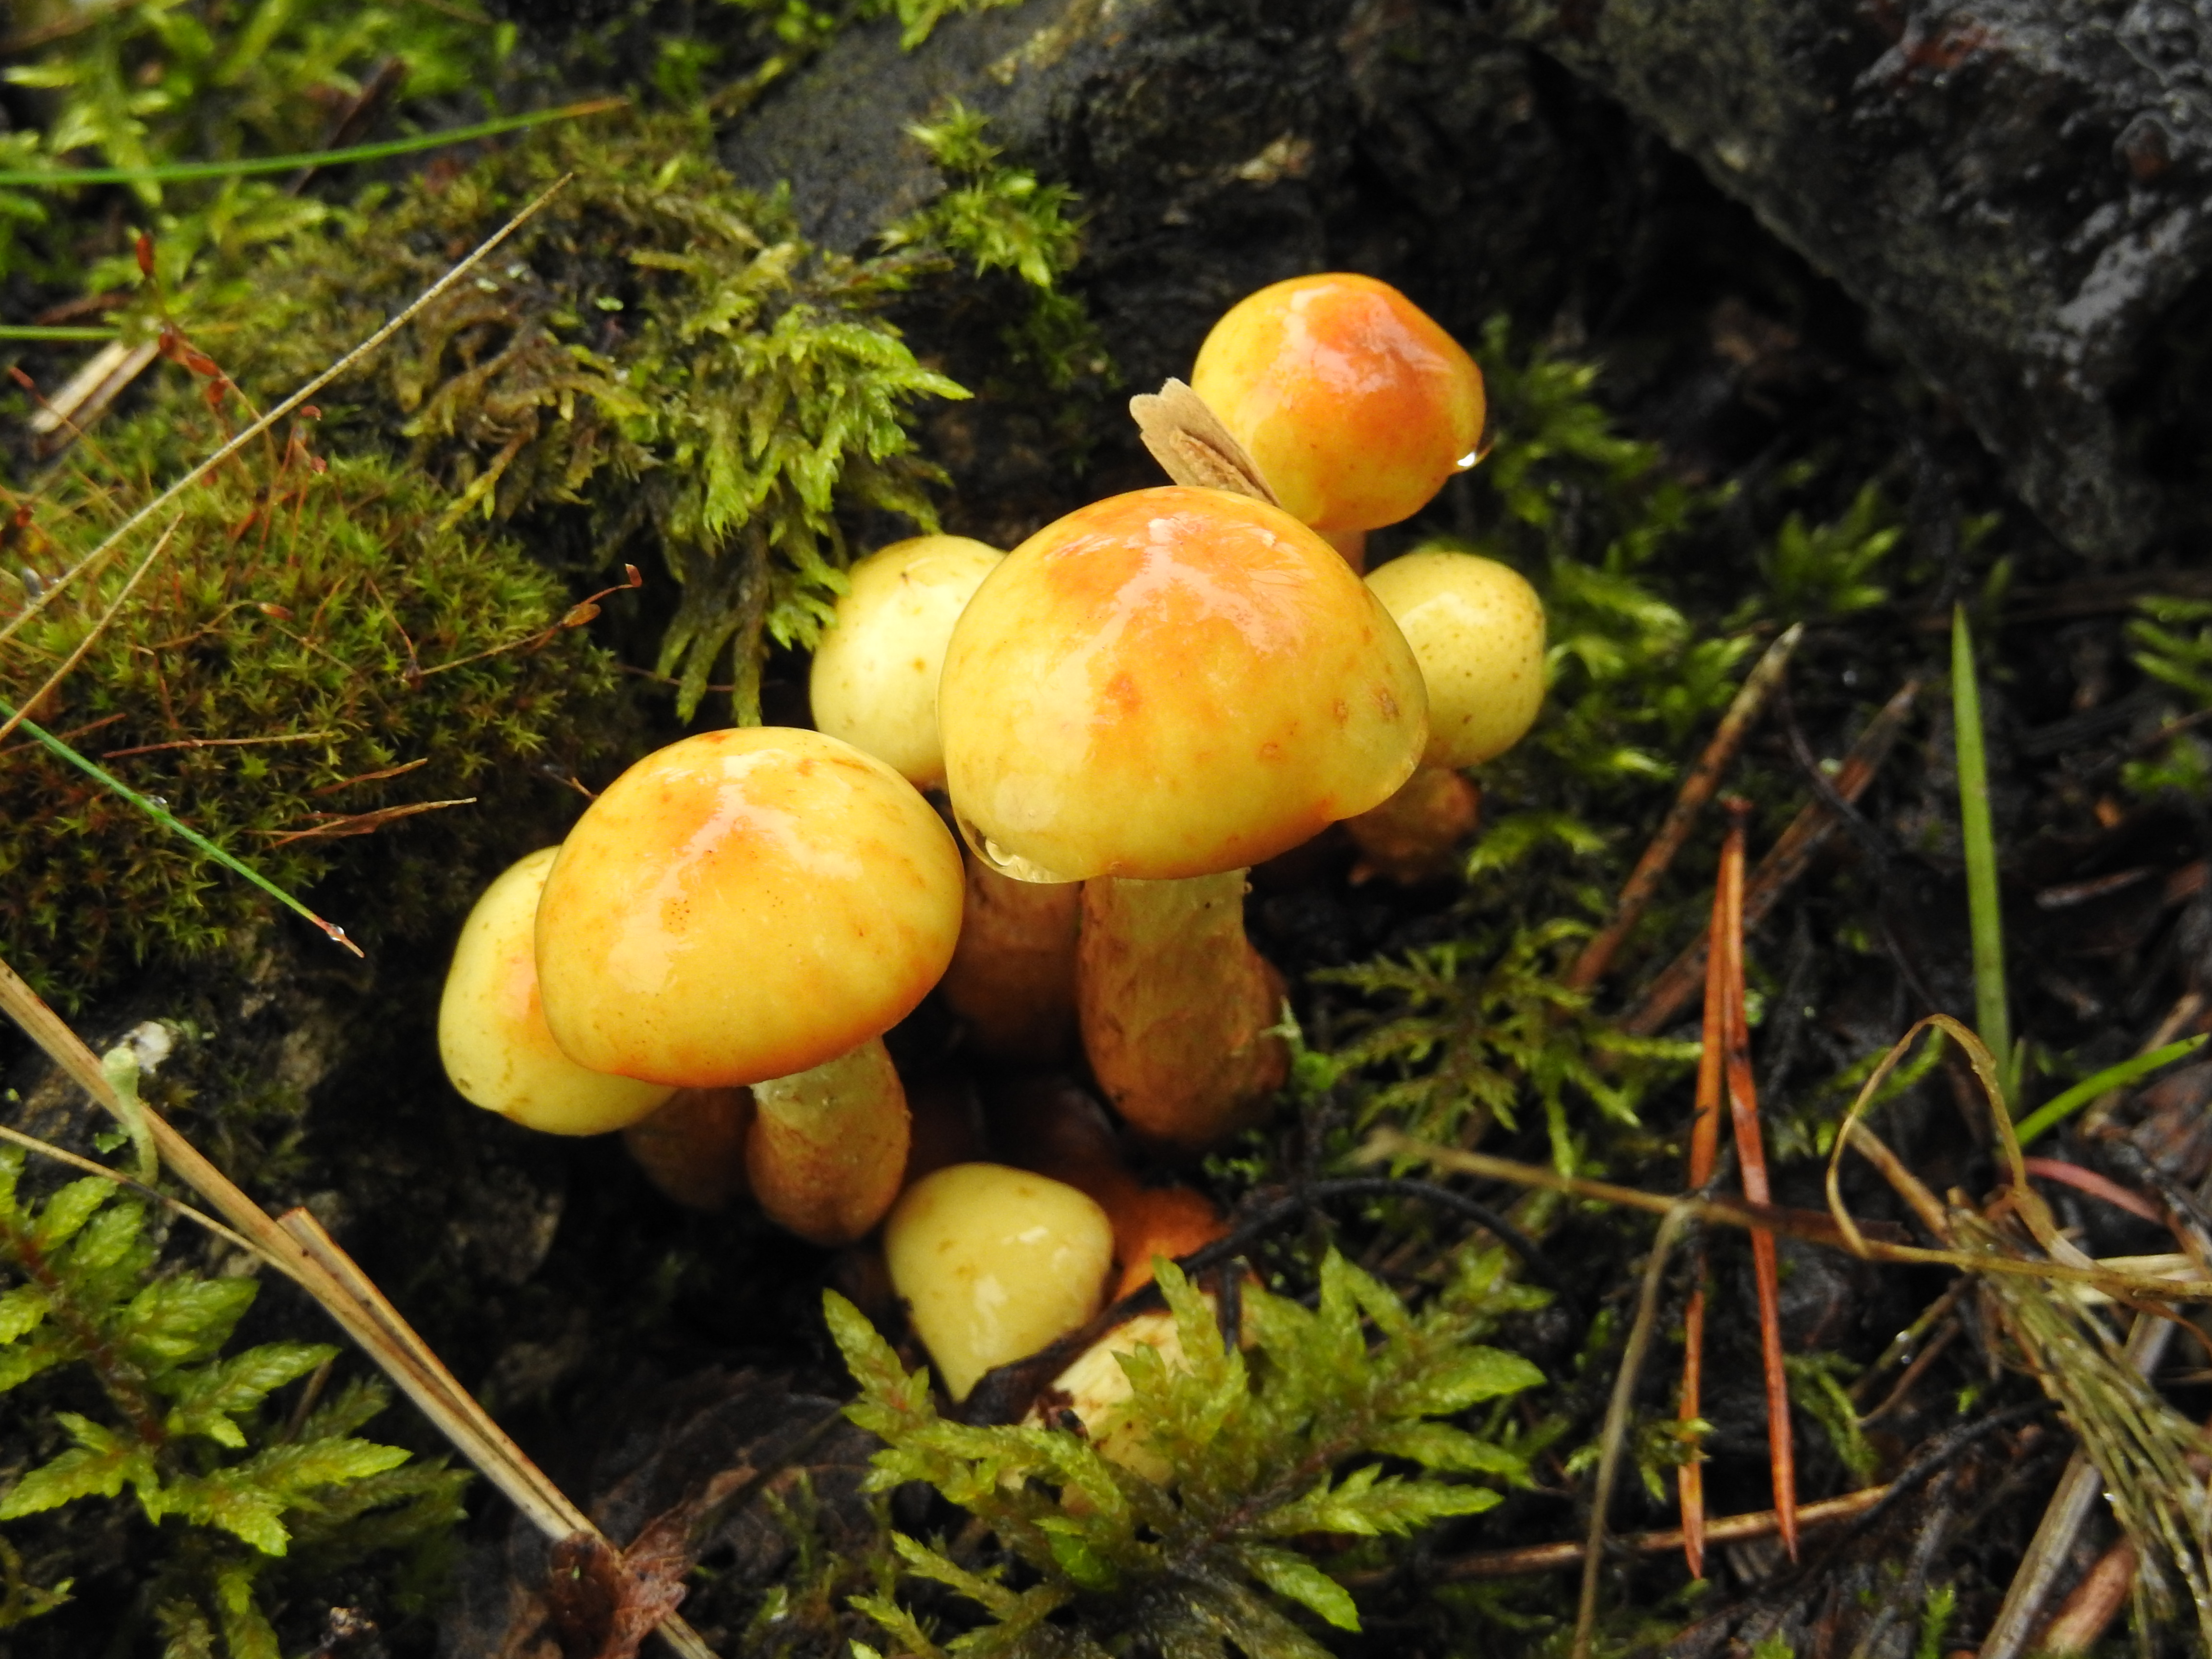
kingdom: Fungi
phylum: Basidiomycota
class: Agaricomycetes
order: Agaricales
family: Hymenogastraceae
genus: Flammula
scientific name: Flammula alnicola
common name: Alder scalycap
